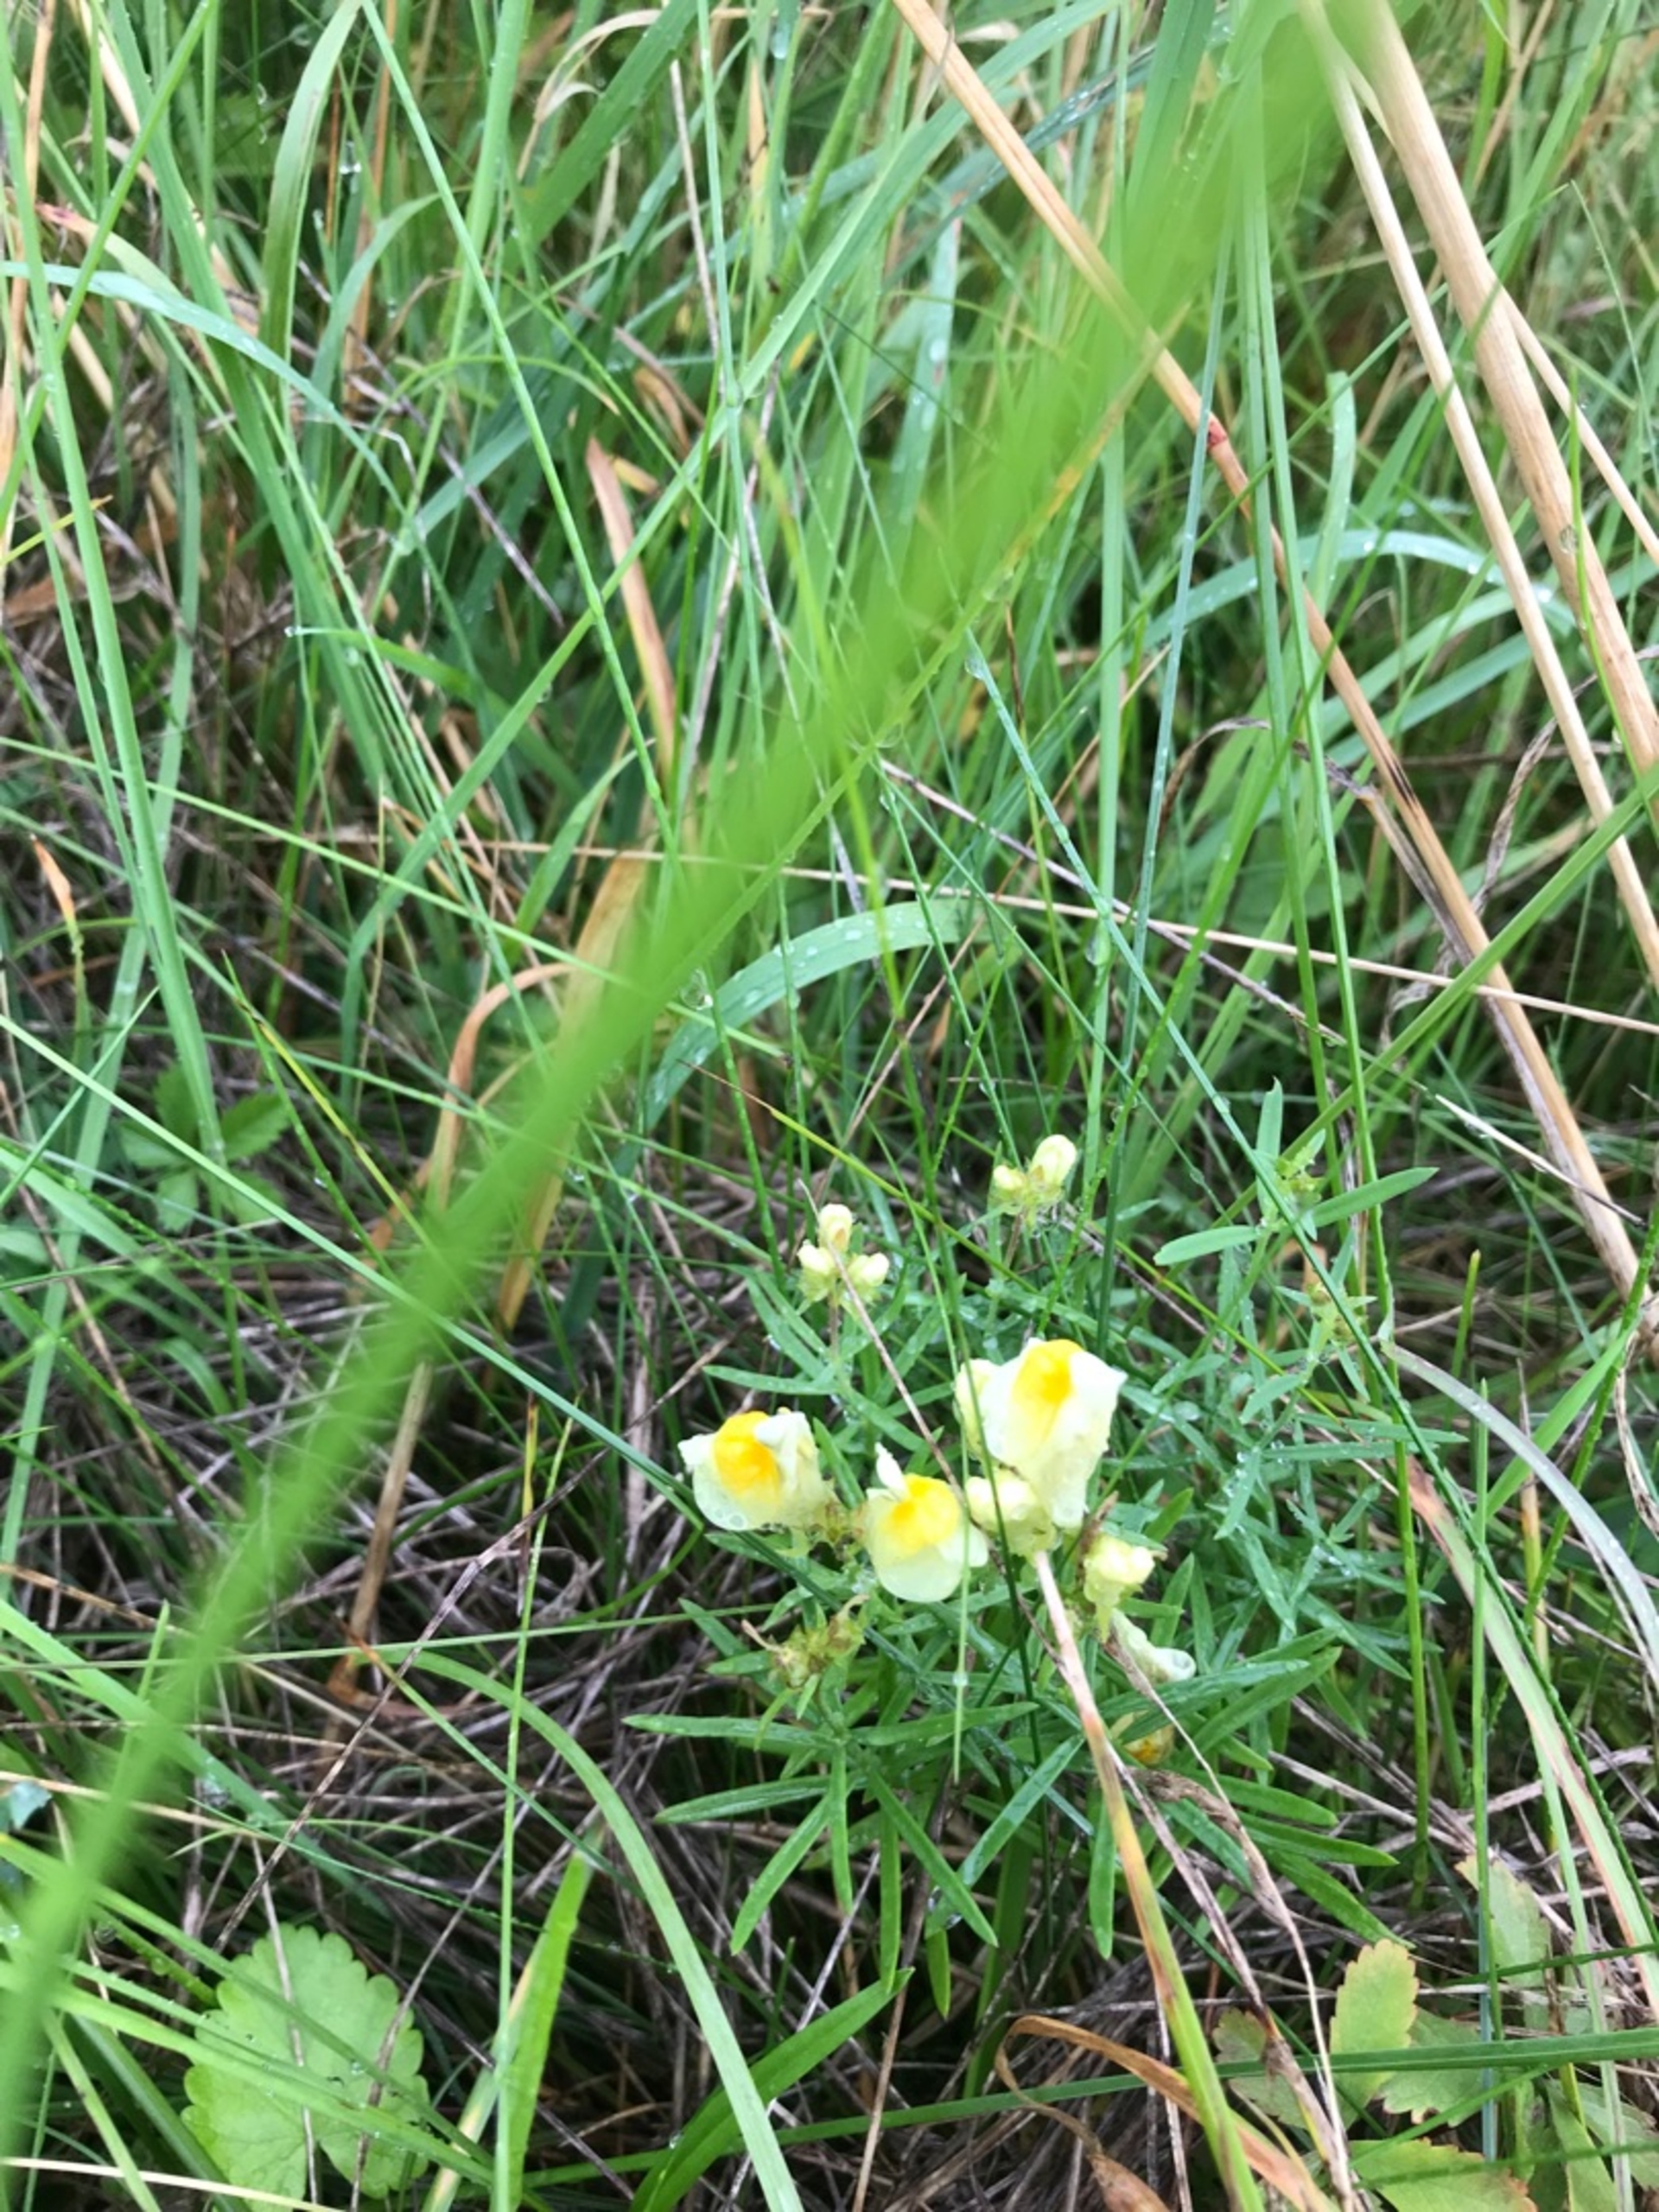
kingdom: Plantae
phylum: Tracheophyta
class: Magnoliopsida
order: Lamiales
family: Plantaginaceae
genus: Linaria
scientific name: Linaria vulgaris
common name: Almindelig torskemund
